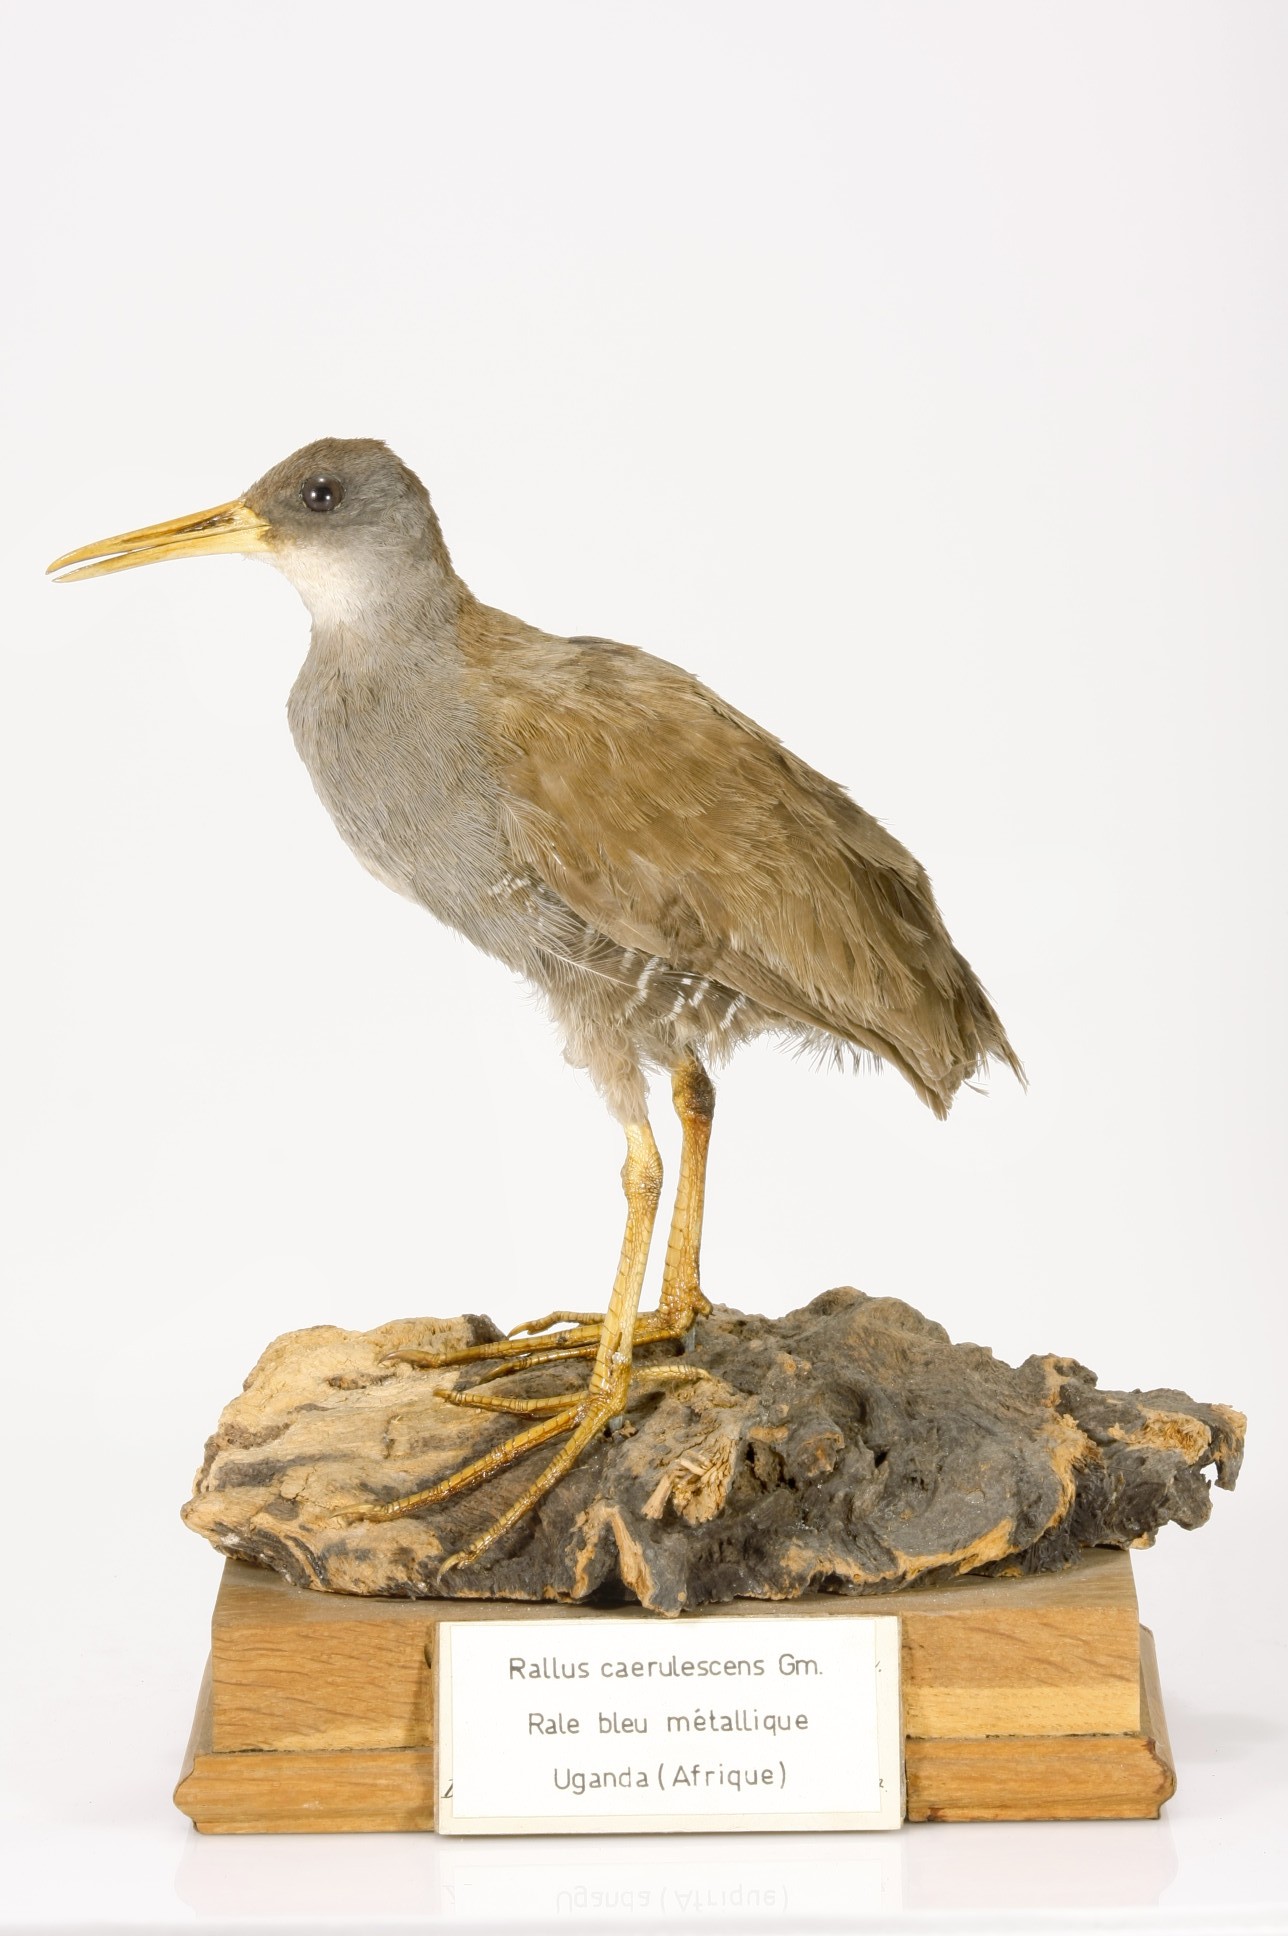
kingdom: Animalia
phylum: Chordata
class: Aves
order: Gruiformes
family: Rallidae
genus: Rallus
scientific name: Rallus caerulescens
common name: African rail
